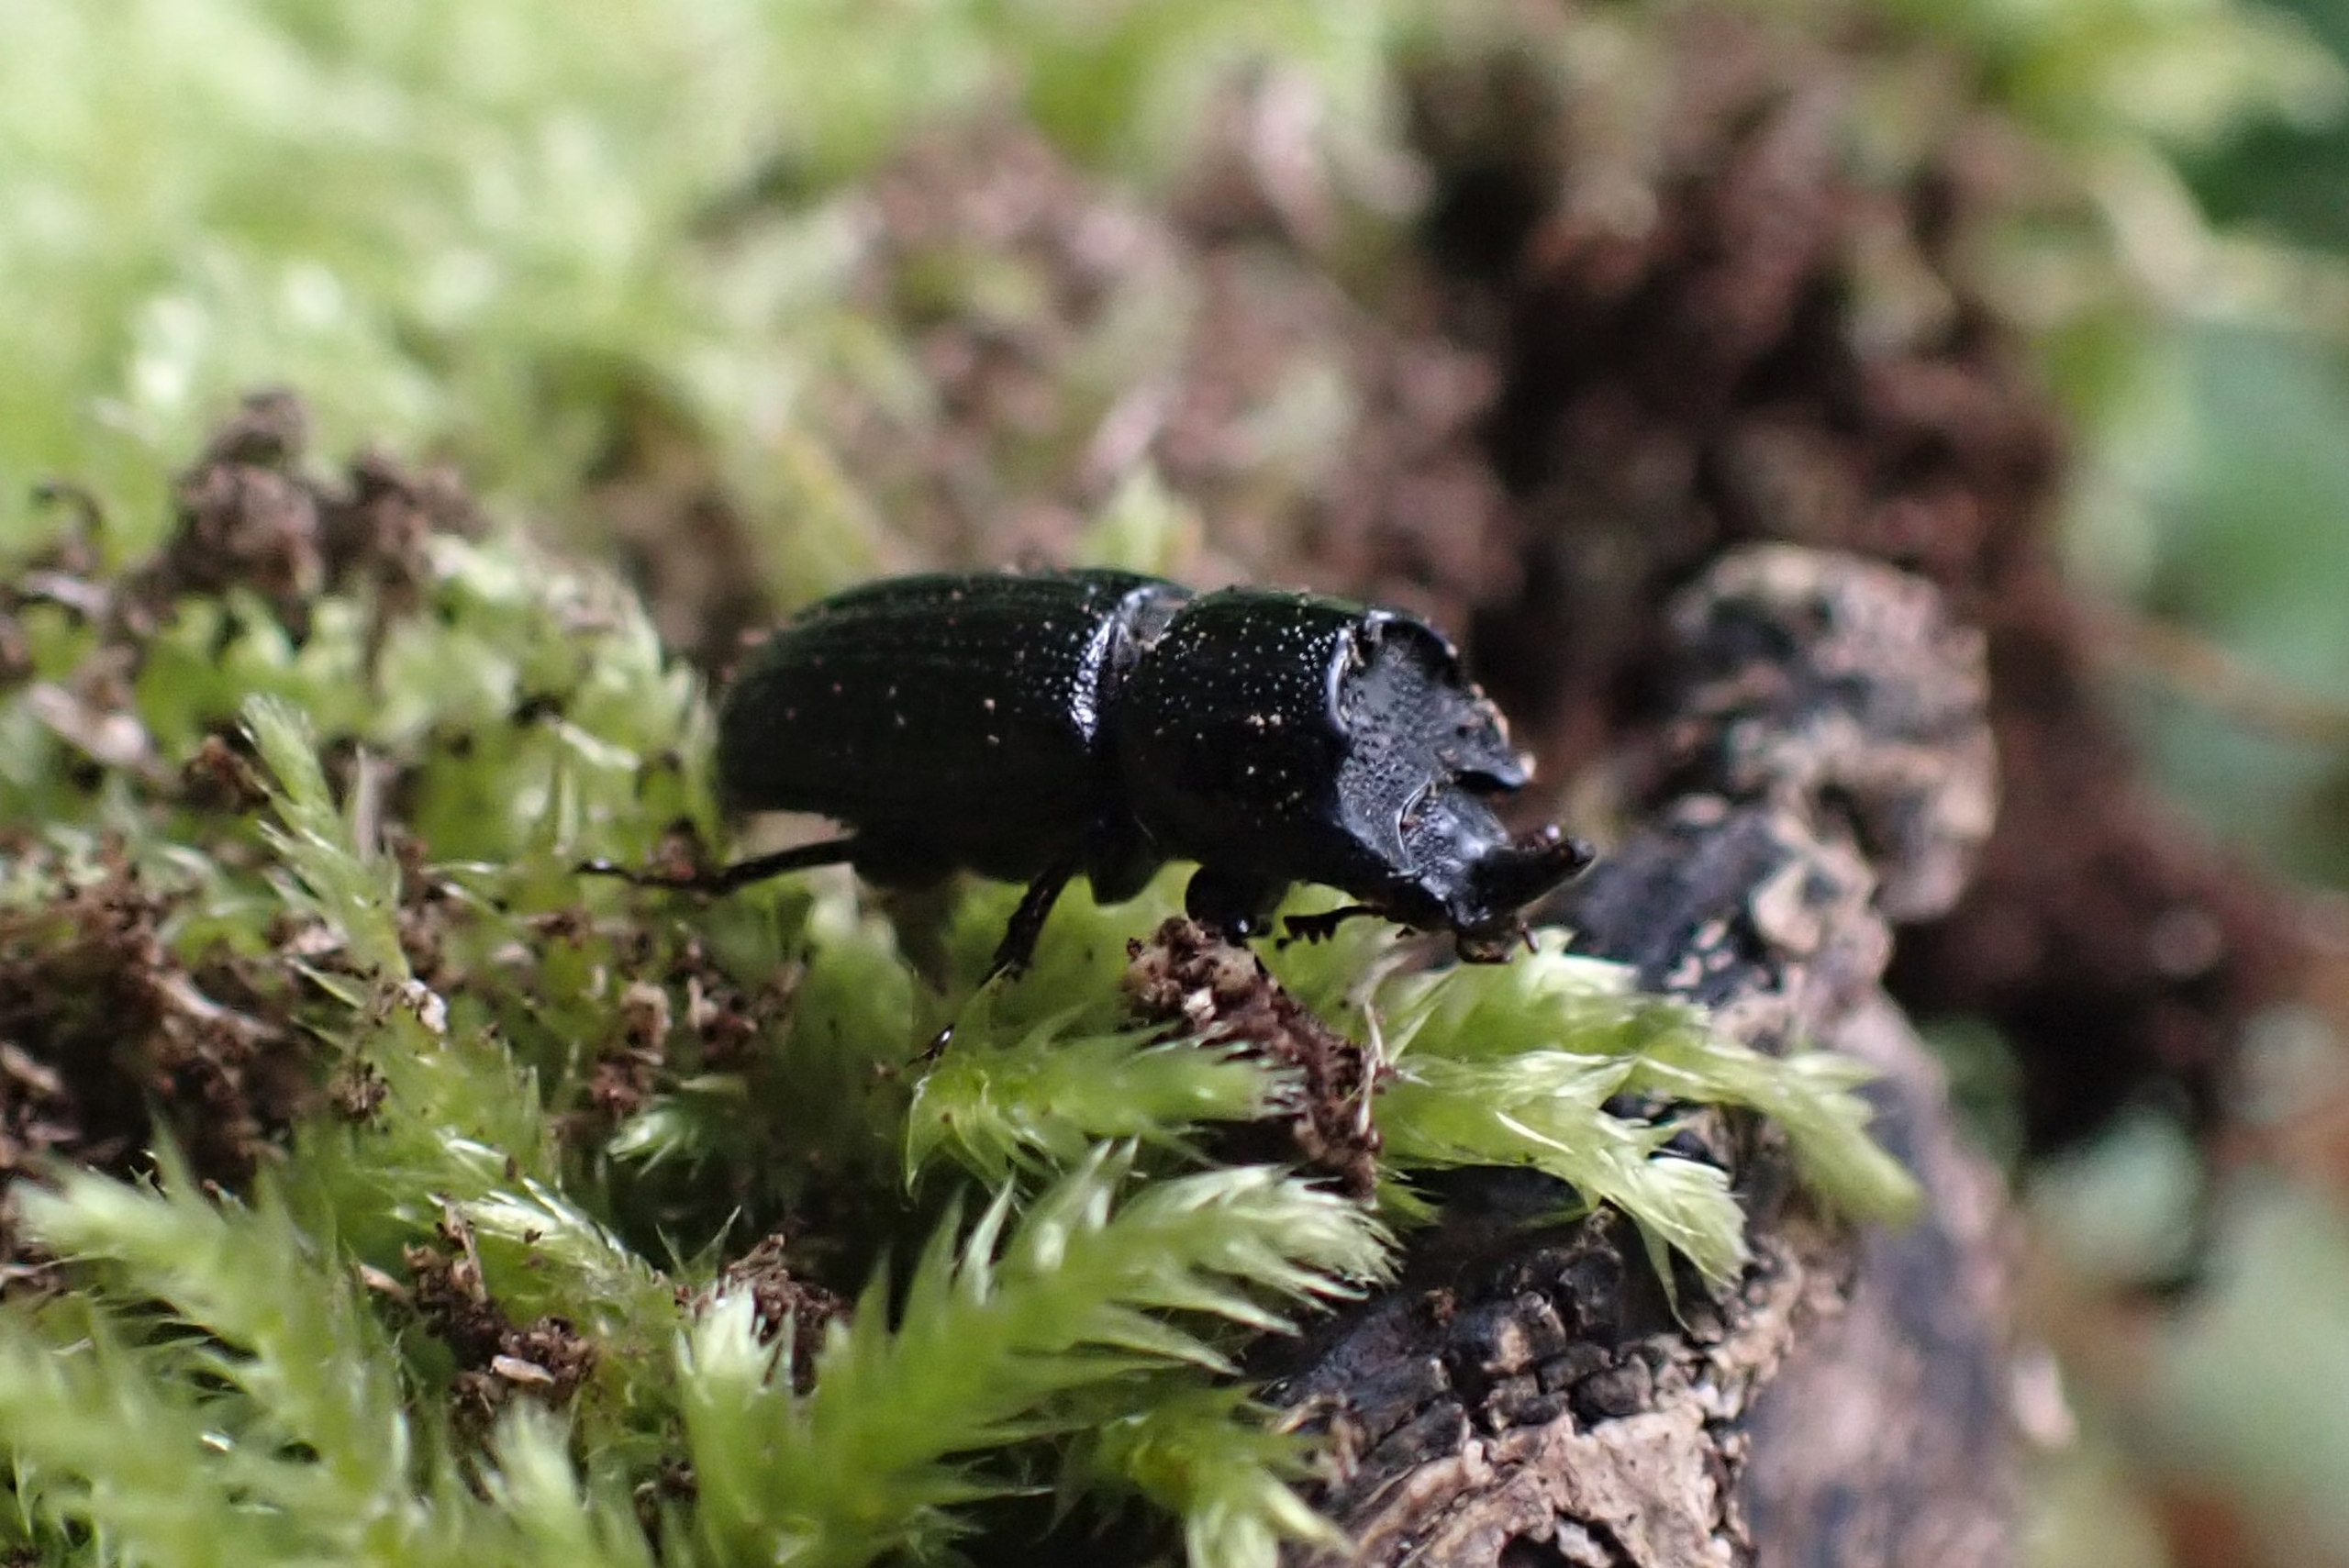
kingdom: Animalia
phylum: Arthropoda
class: Insecta
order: Coleoptera
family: Lucanidae
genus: Sinodendron
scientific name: Sinodendron cylindricum
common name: Valsehjort
